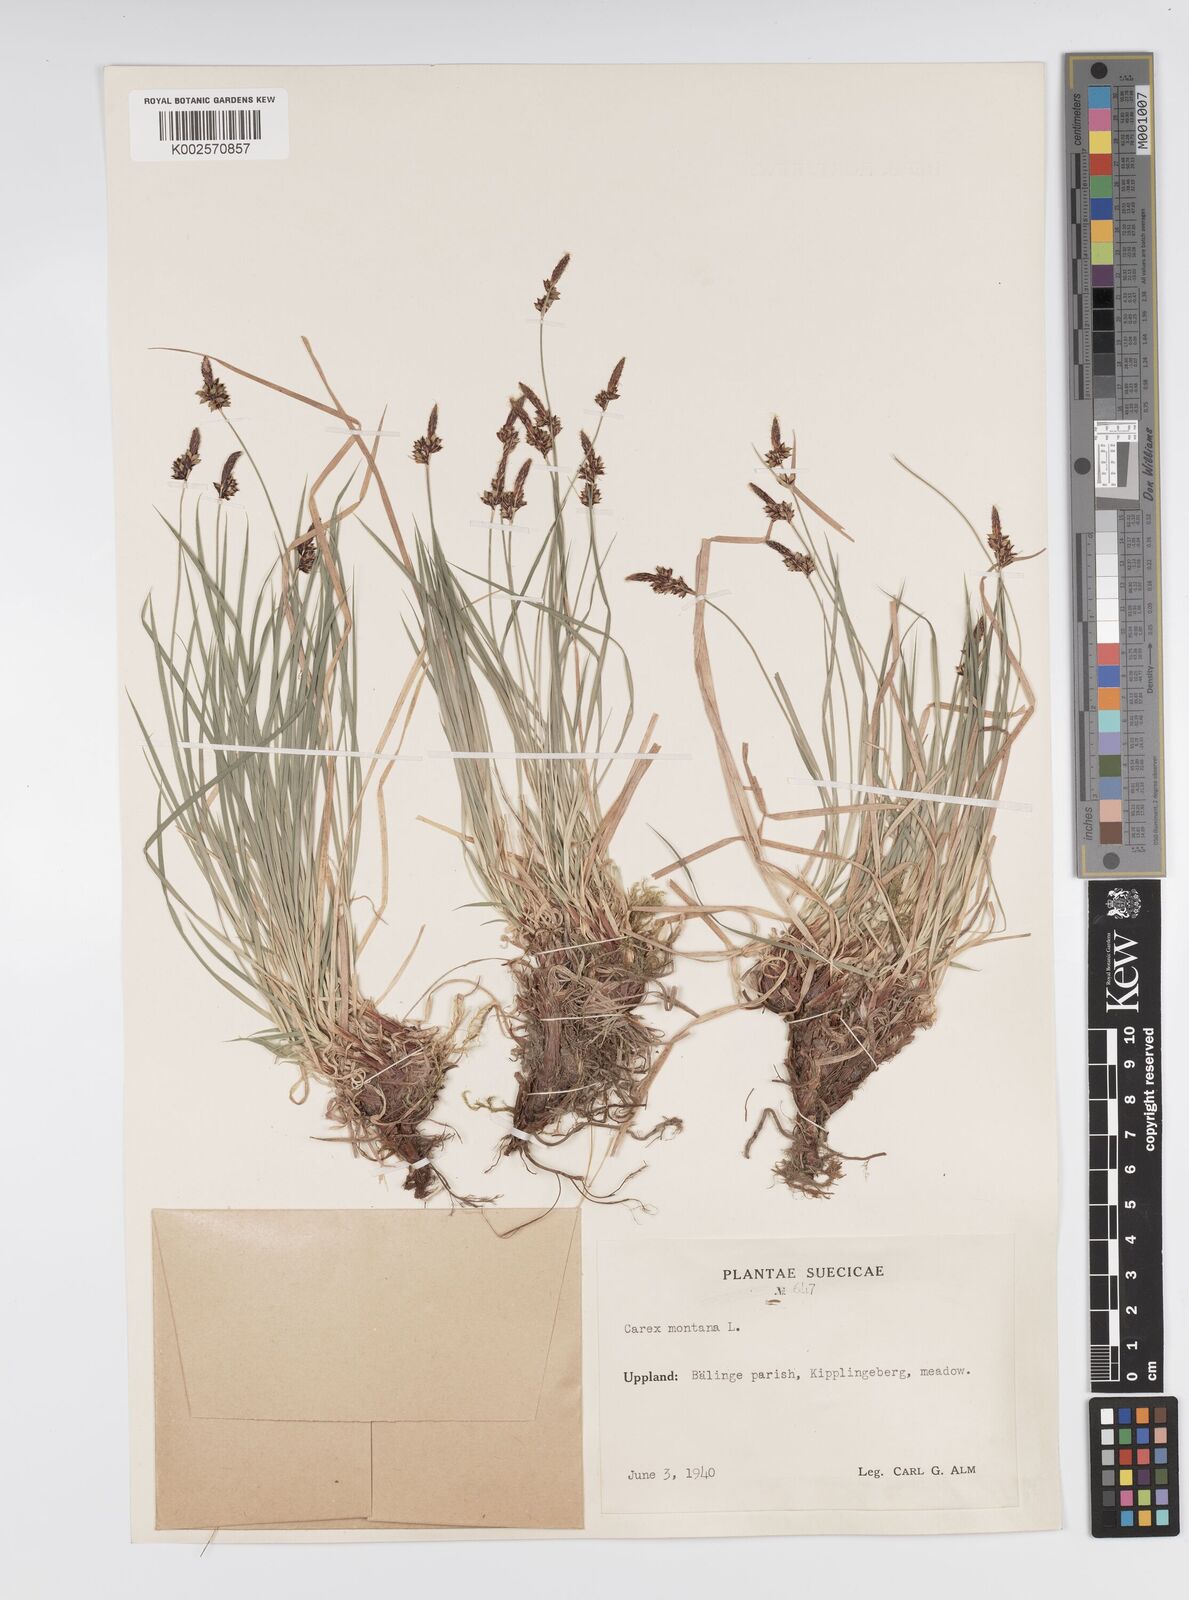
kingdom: Plantae
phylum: Tracheophyta
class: Liliopsida
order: Poales
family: Cyperaceae
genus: Carex
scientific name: Carex montana
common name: Soft-leaved sedge
